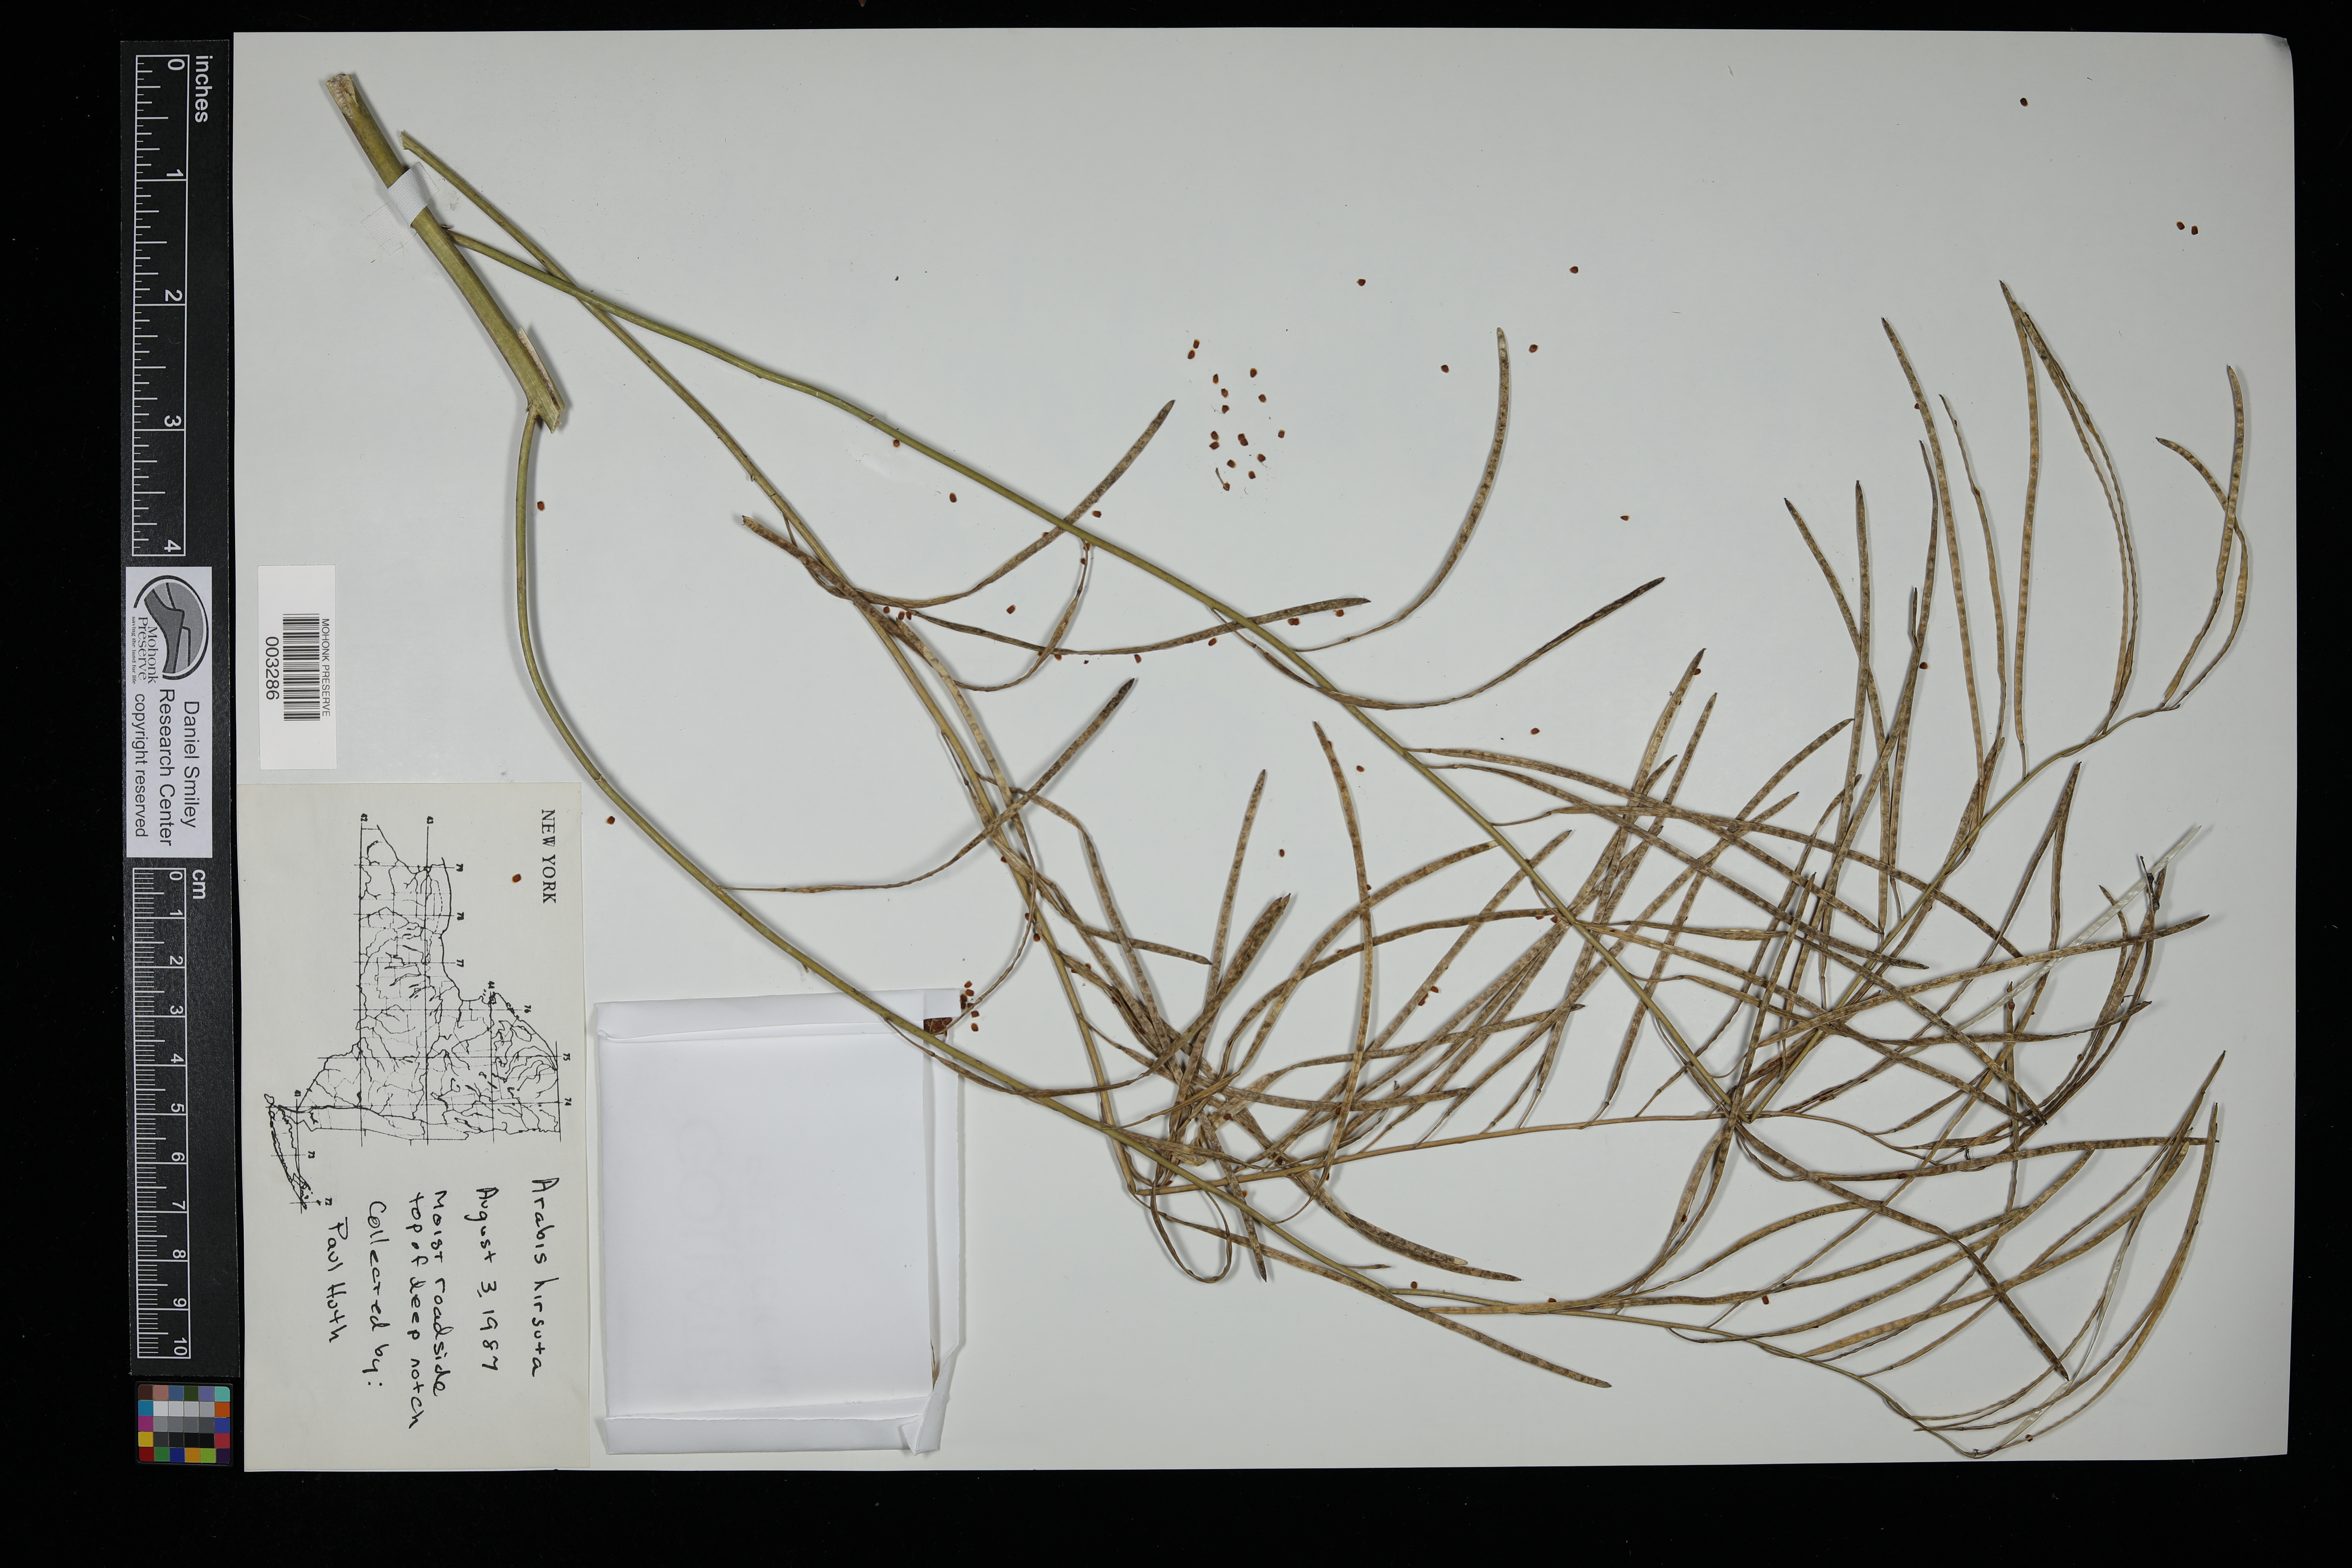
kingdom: Plantae
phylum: Tracheophyta
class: Magnoliopsida
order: Brassicales
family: Brassicaceae
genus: Arabis
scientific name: Arabis hirsuta
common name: Hairy rock-cress
